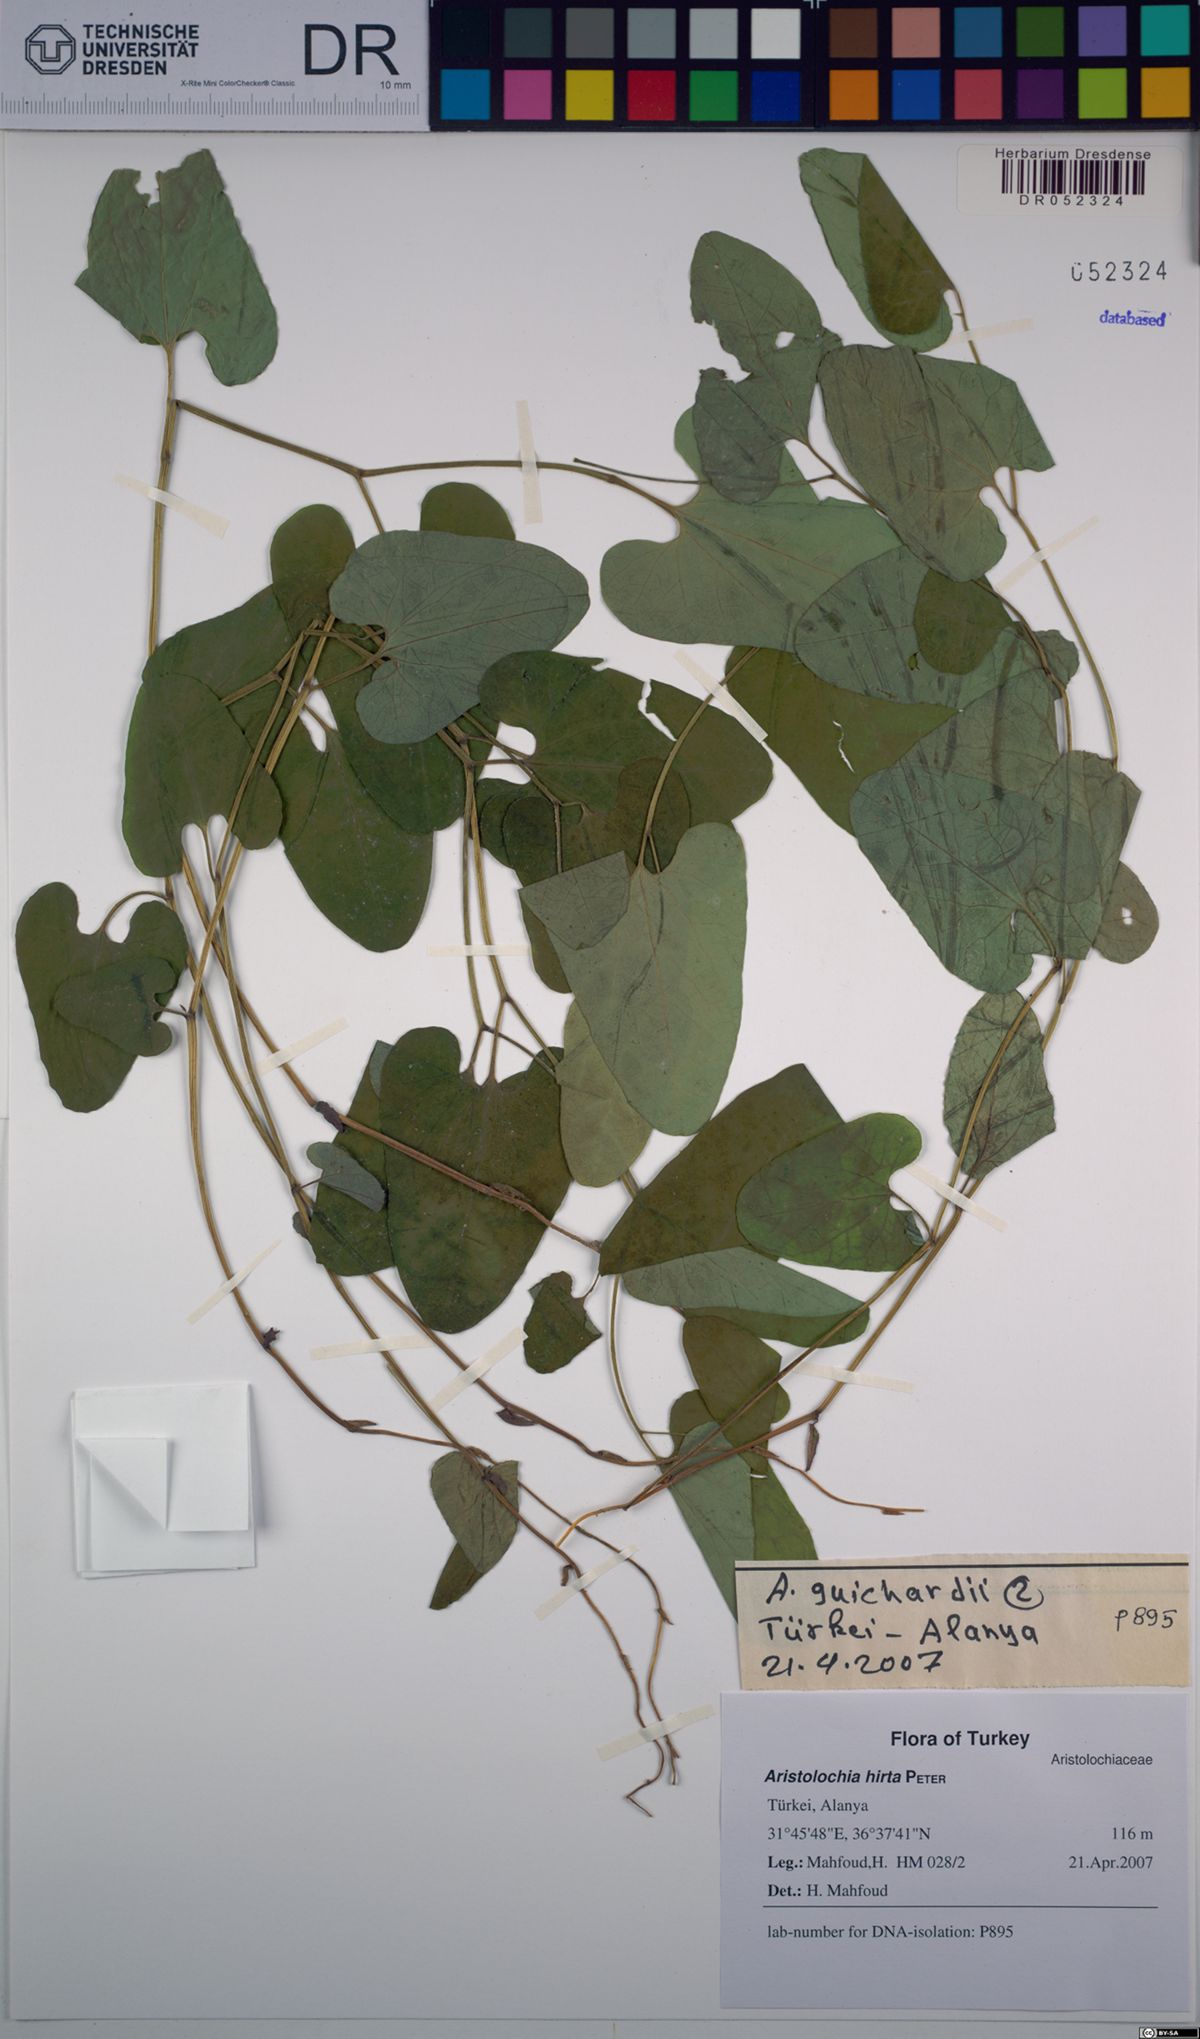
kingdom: Plantae
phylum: Tracheophyta
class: Magnoliopsida
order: Piperales
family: Aristolochiaceae
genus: Aristolochia
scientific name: Aristolochia hockii
